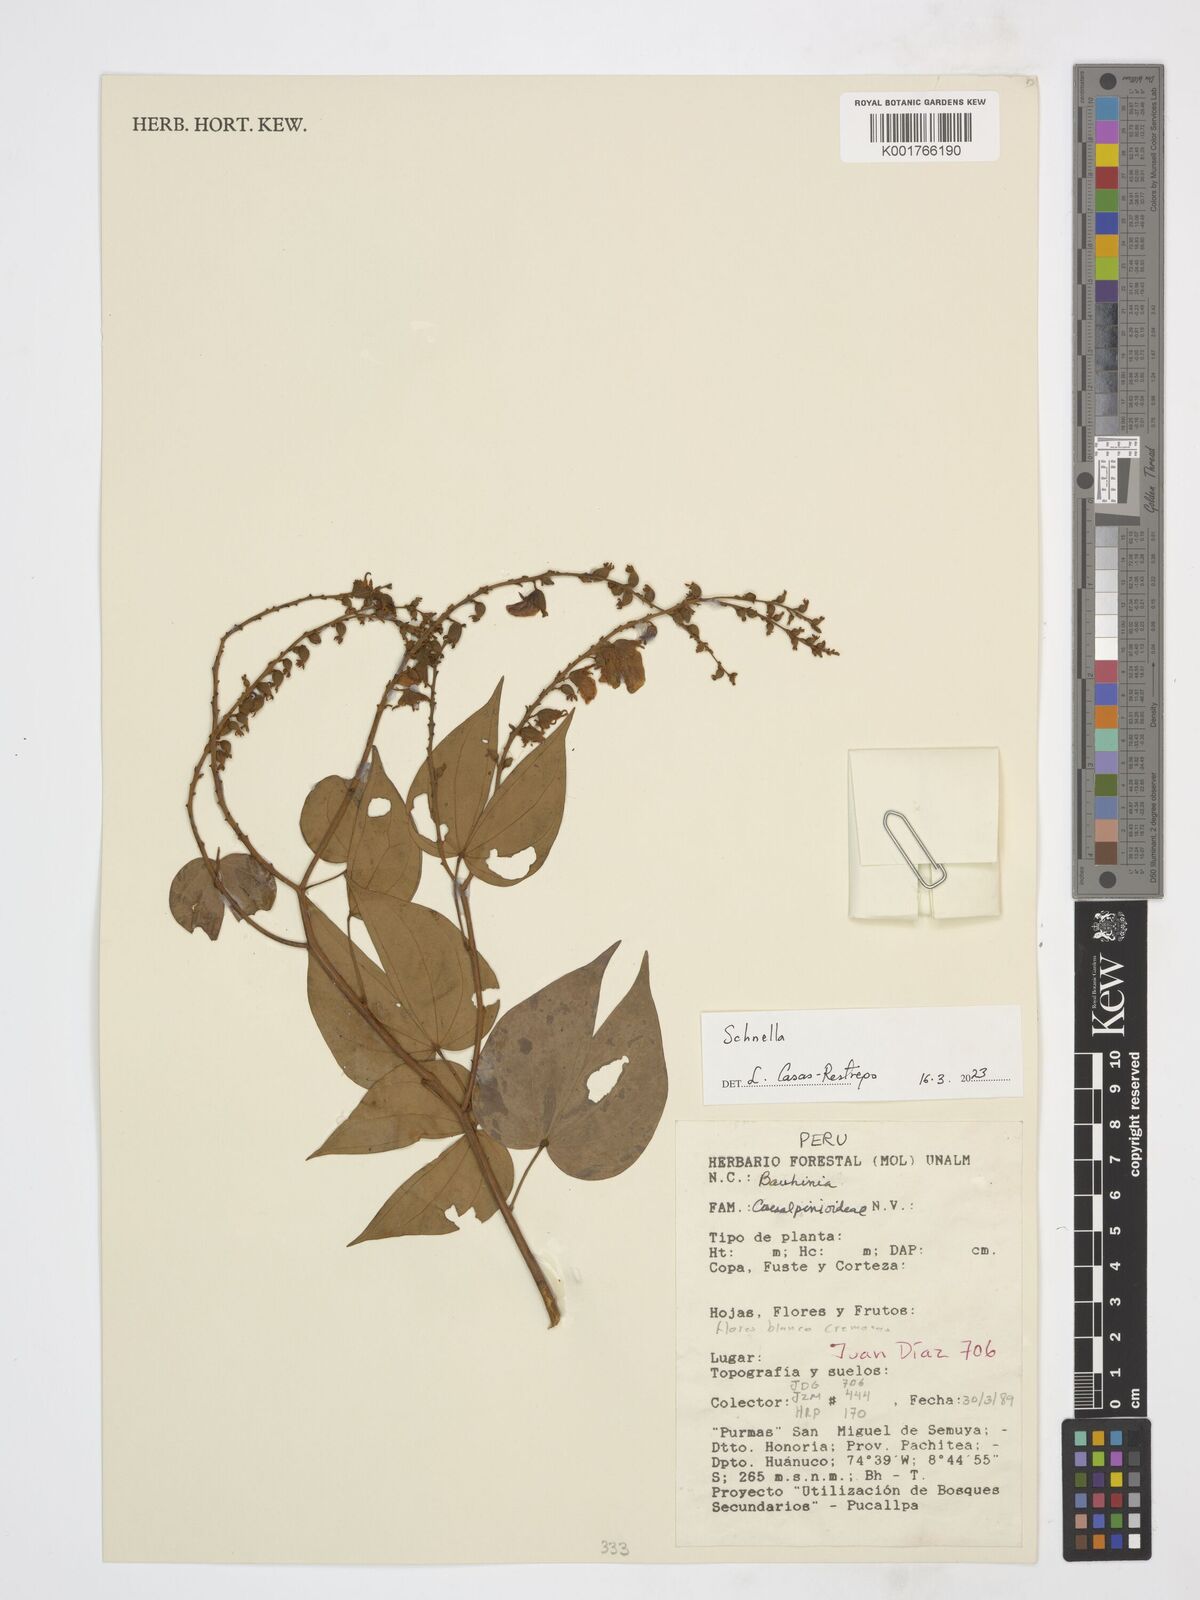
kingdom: Plantae
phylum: Tracheophyta
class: Magnoliopsida
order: Fabales
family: Fabaceae
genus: Schnella
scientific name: Schnella
